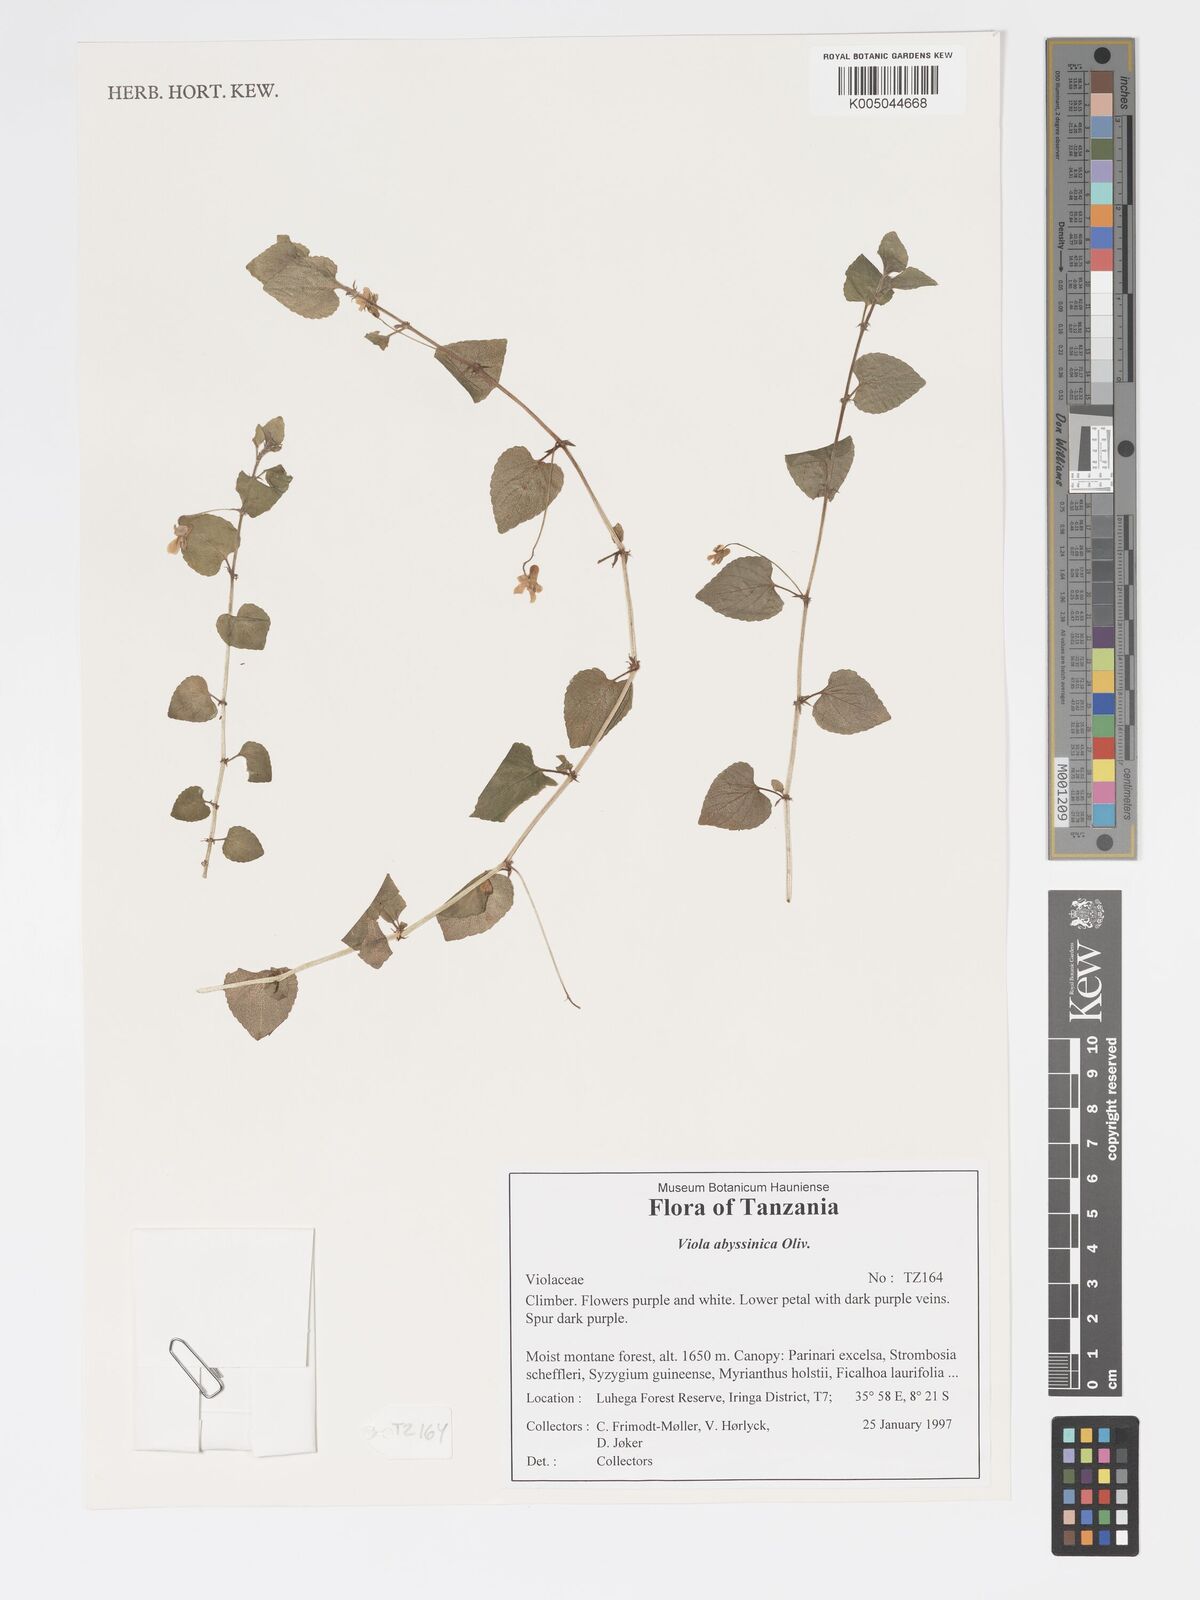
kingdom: Plantae
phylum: Tracheophyta
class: Magnoliopsida
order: Malpighiales
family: Violaceae
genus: Viola
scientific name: Viola abyssinica
